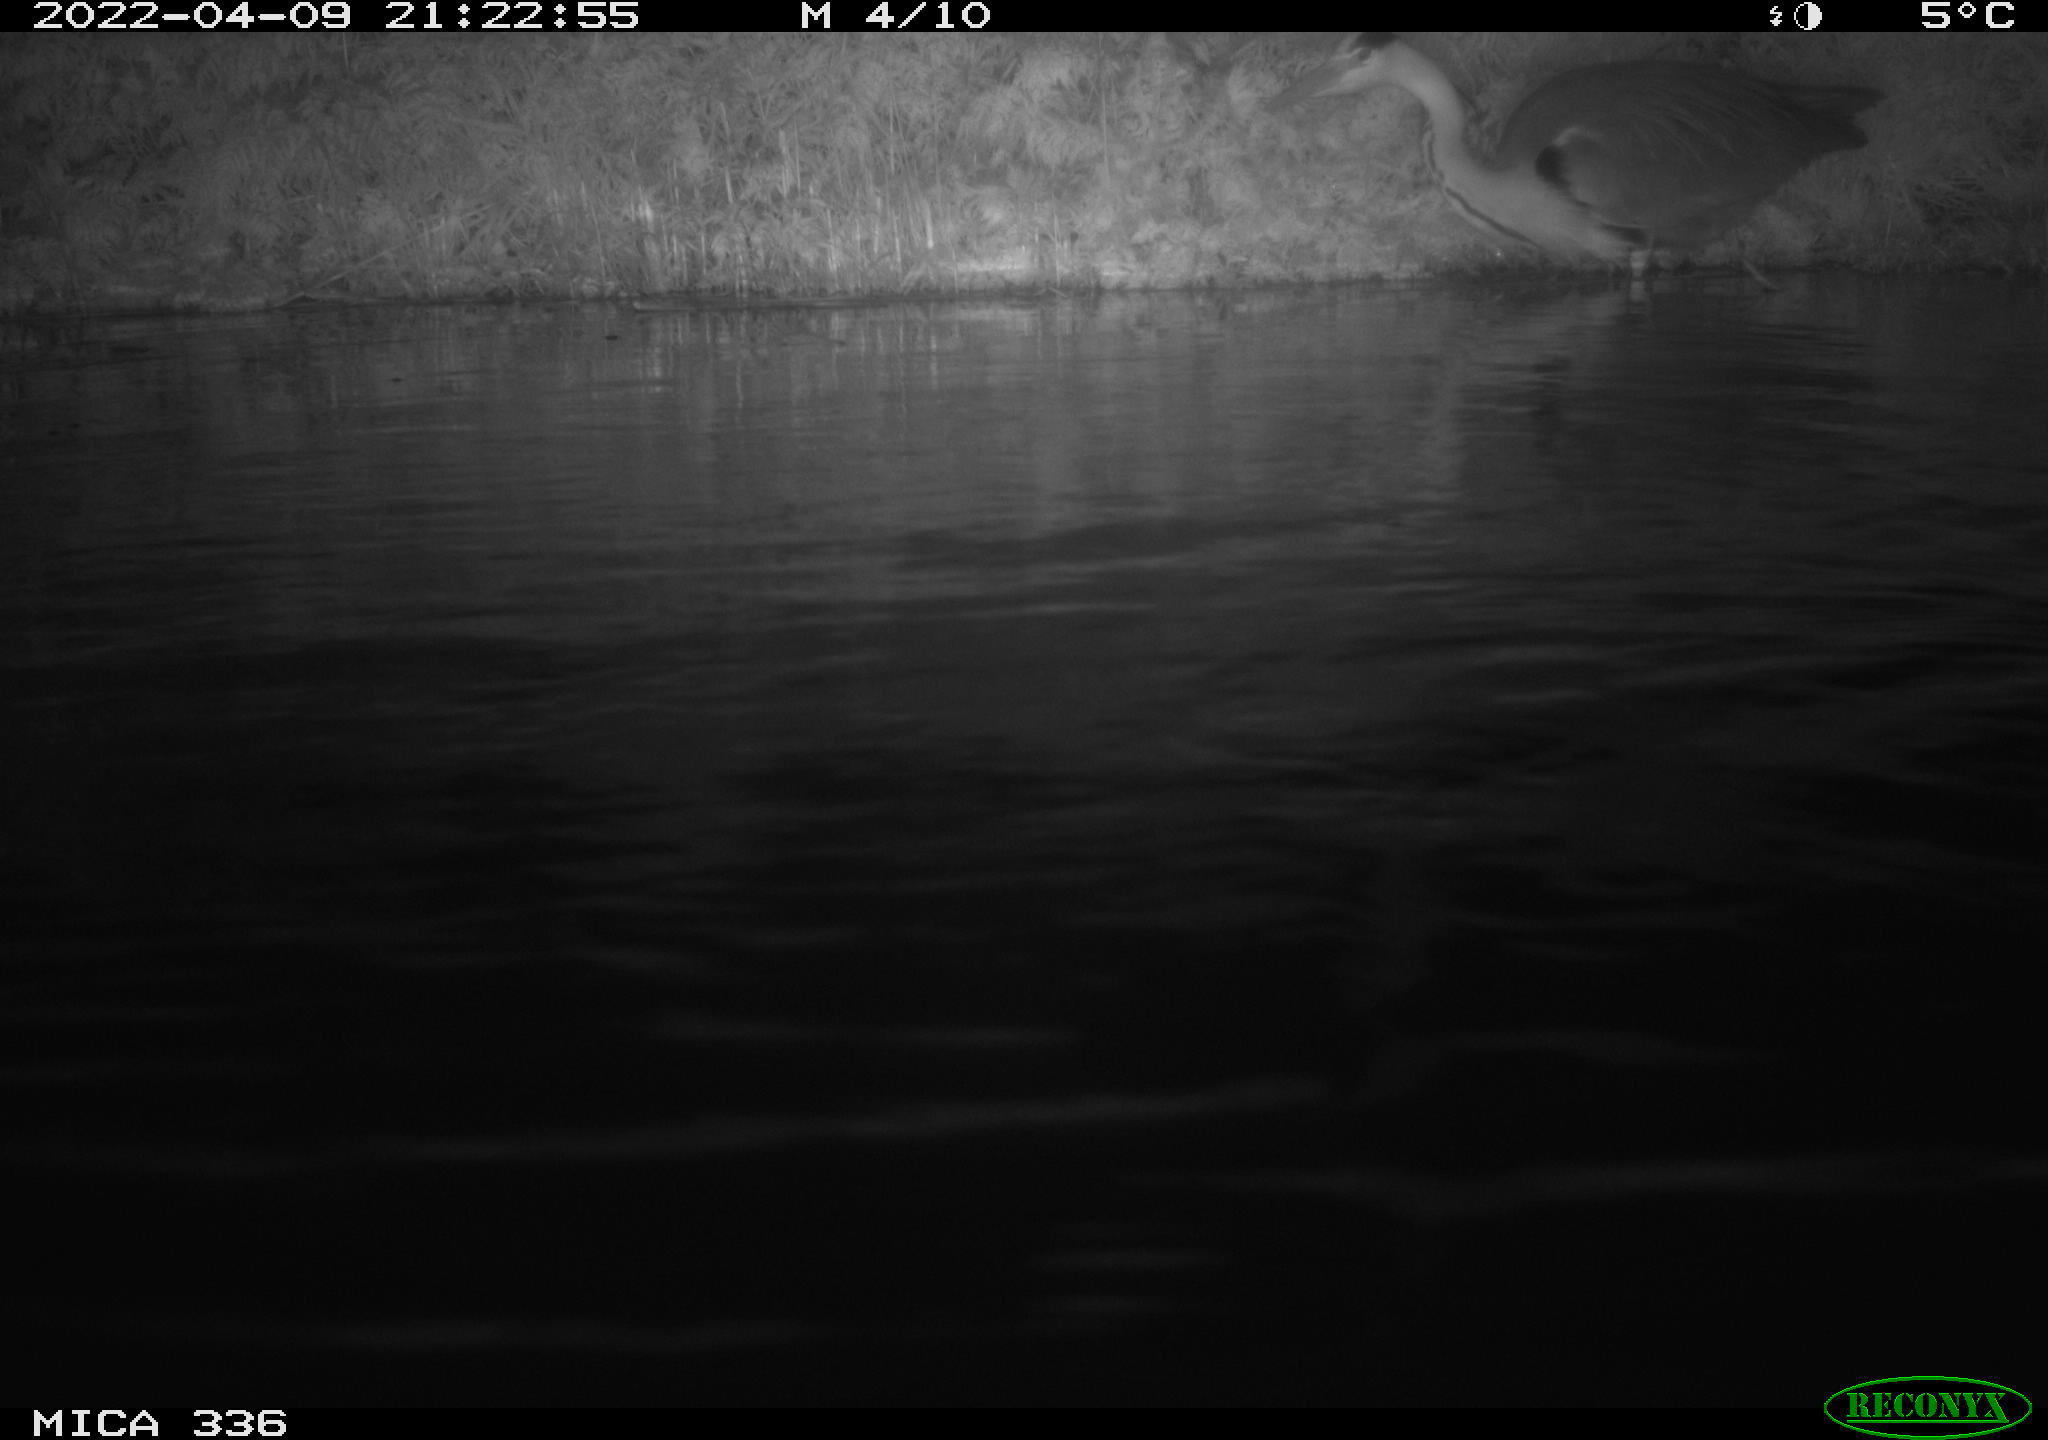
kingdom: Animalia
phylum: Chordata
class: Aves
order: Pelecaniformes
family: Ardeidae
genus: Ardea
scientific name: Ardea cinerea
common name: Grey heron
